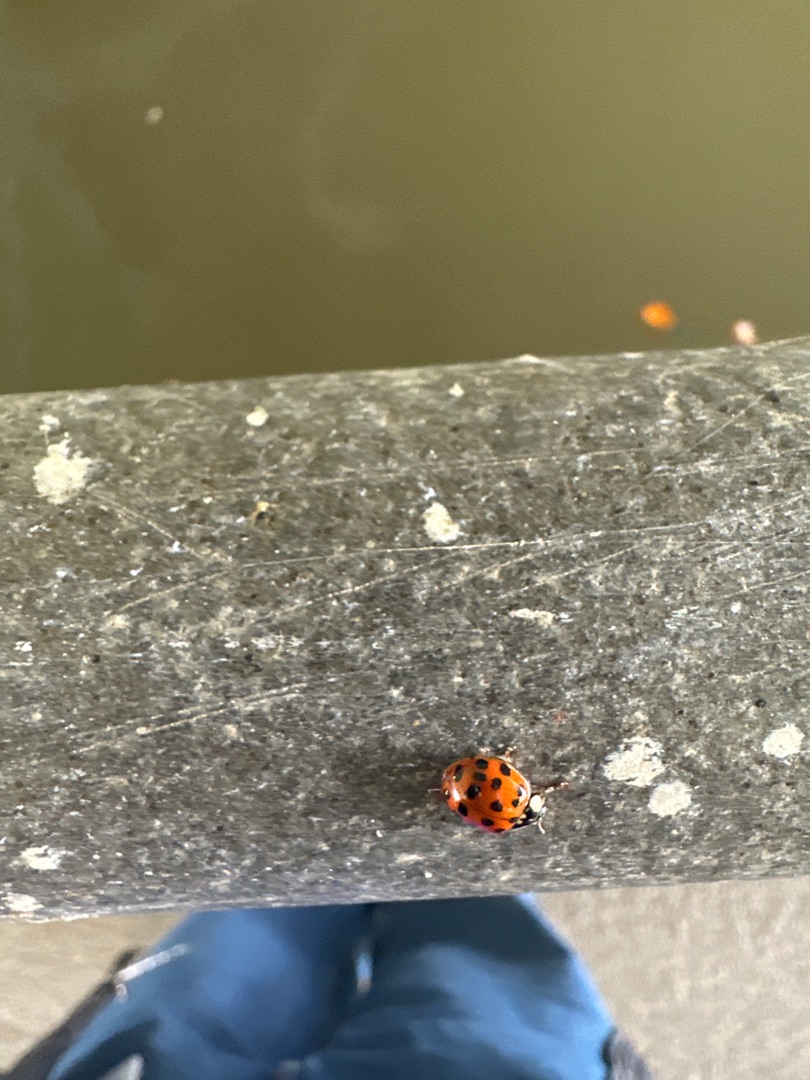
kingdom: Animalia
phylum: Arthropoda
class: Insecta
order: Coleoptera
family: Coccinellidae
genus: Harmonia
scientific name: Harmonia axyridis
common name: Harlekinmariehøne
